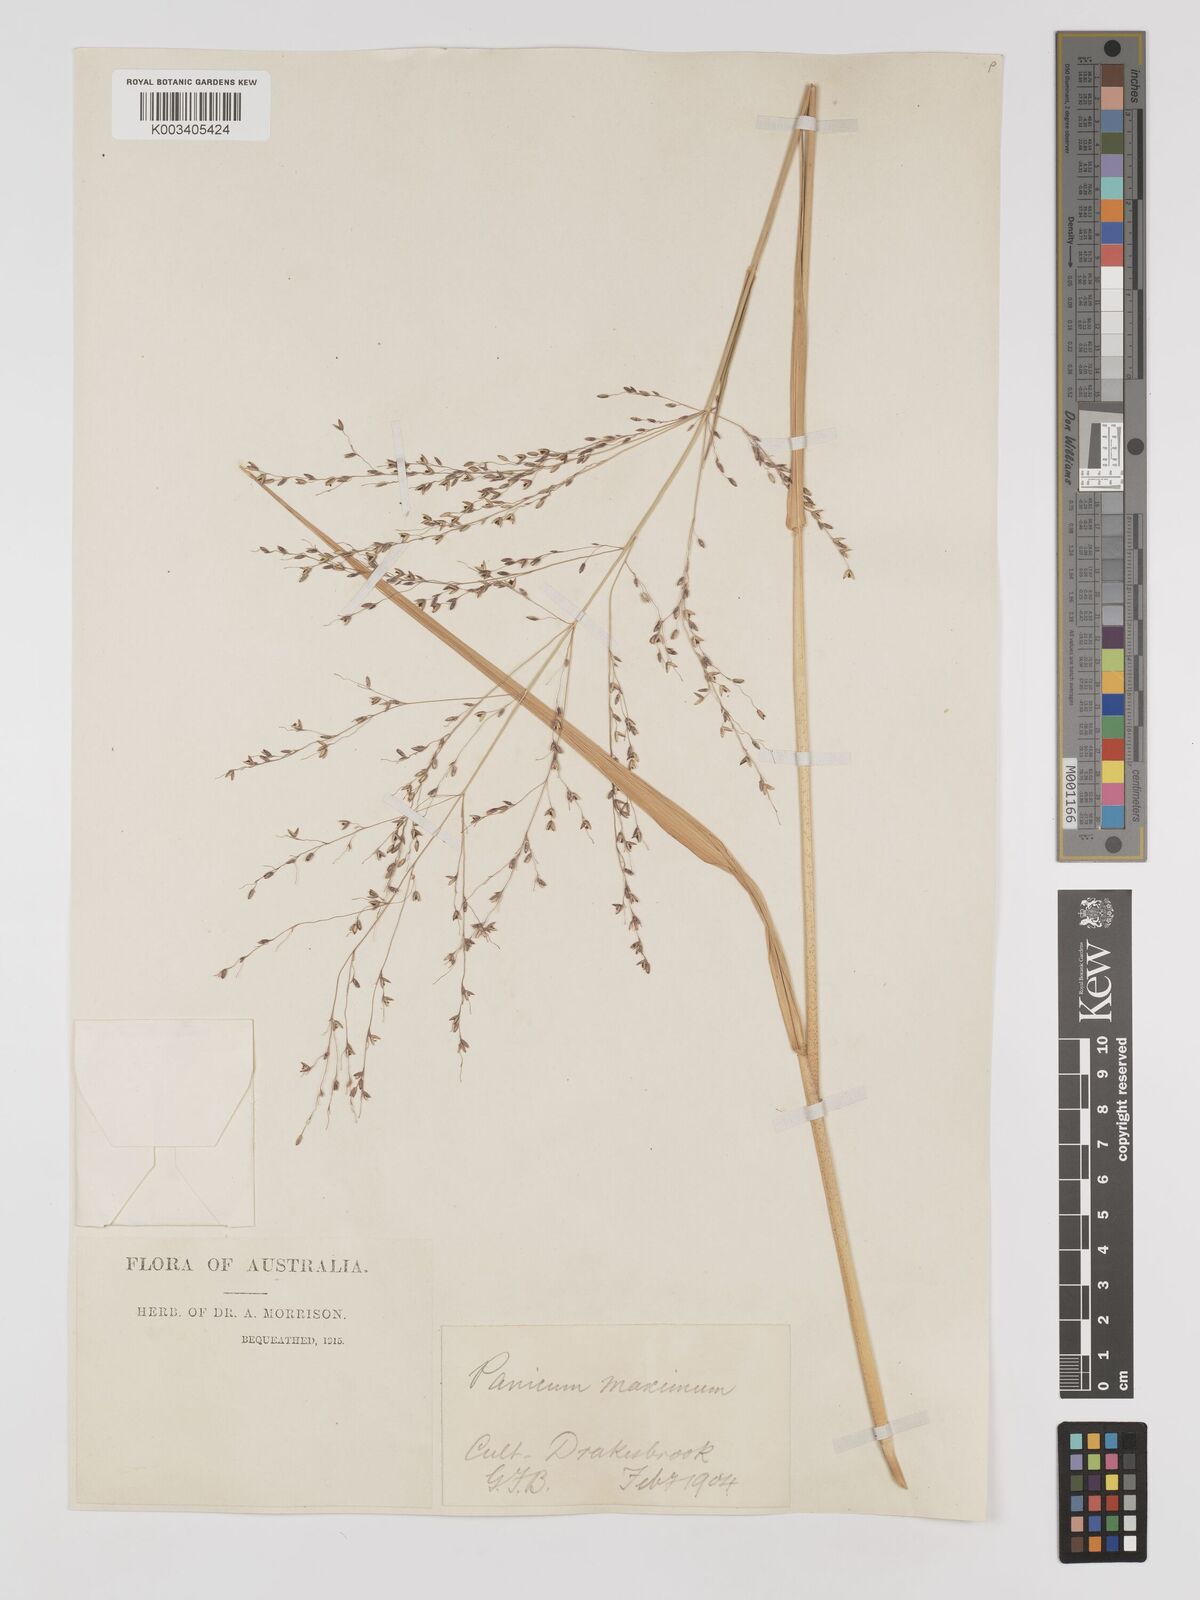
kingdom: Plantae
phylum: Tracheophyta
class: Liliopsida
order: Poales
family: Poaceae
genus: Megathyrsus
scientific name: Megathyrsus maximus
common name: Guineagrass
